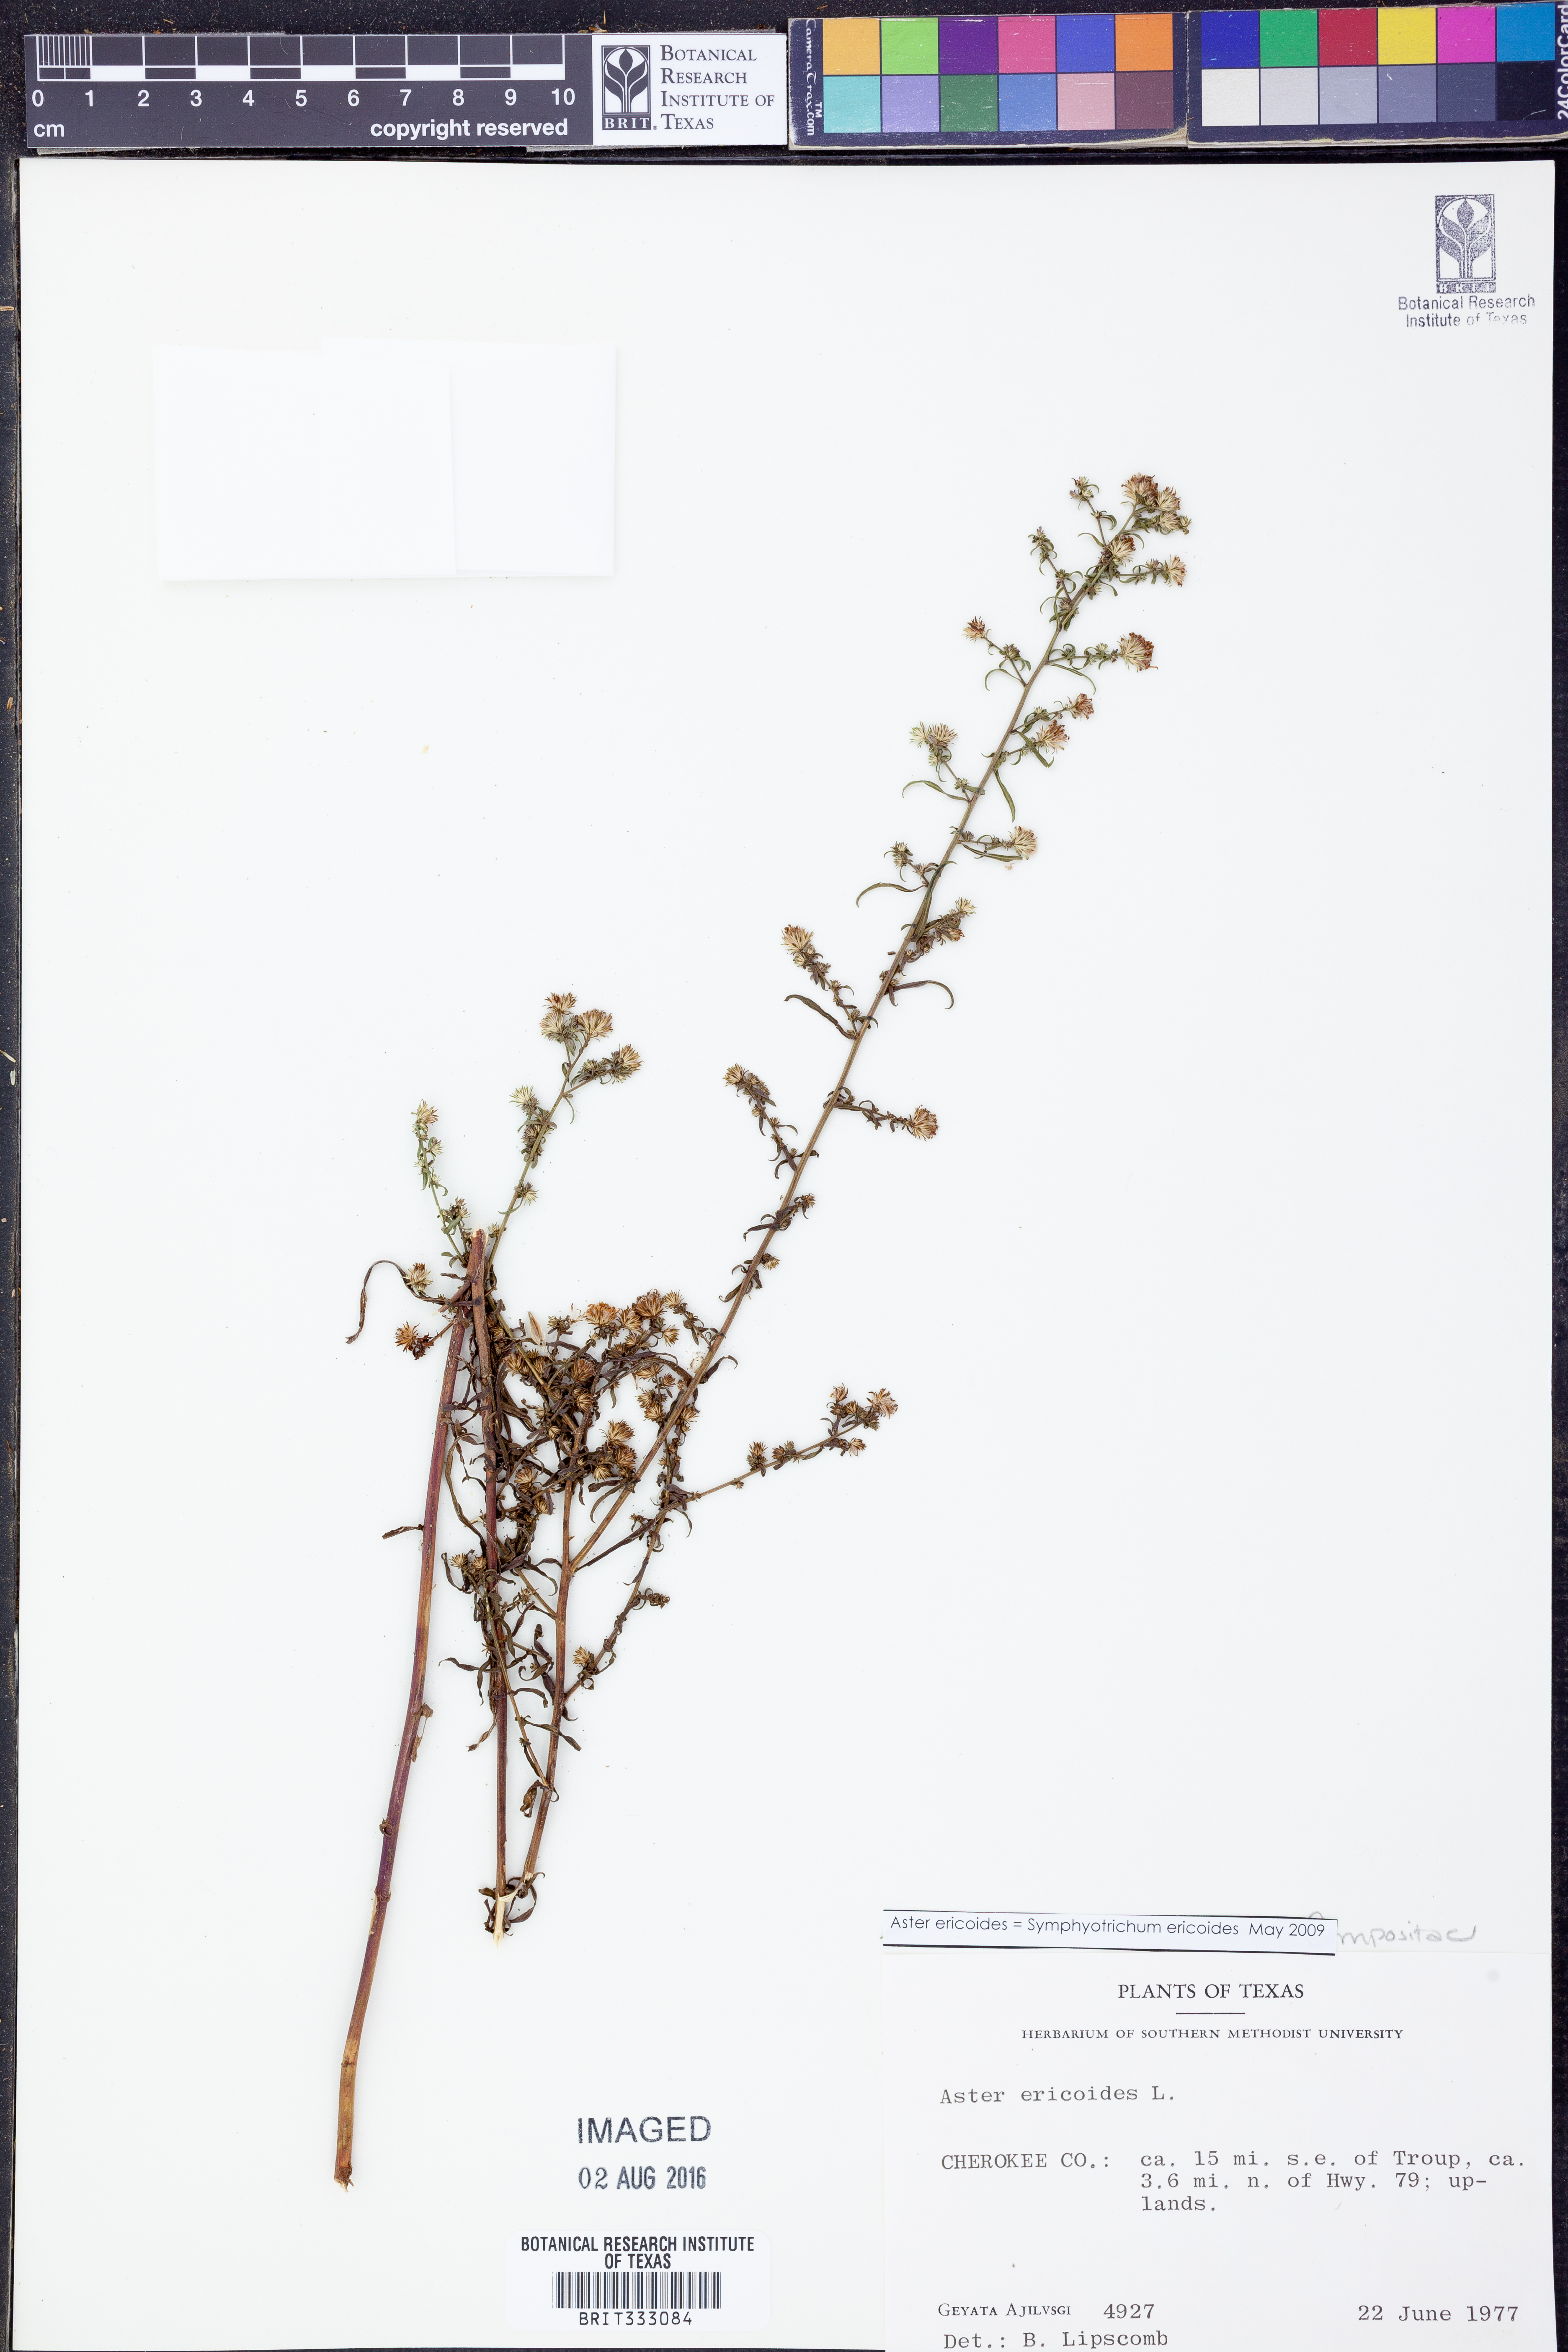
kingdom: Plantae
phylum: Tracheophyta
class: Magnoliopsida
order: Asterales
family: Asteraceae
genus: Symphyotrichum
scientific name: Symphyotrichum ericoides
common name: Heath aster
